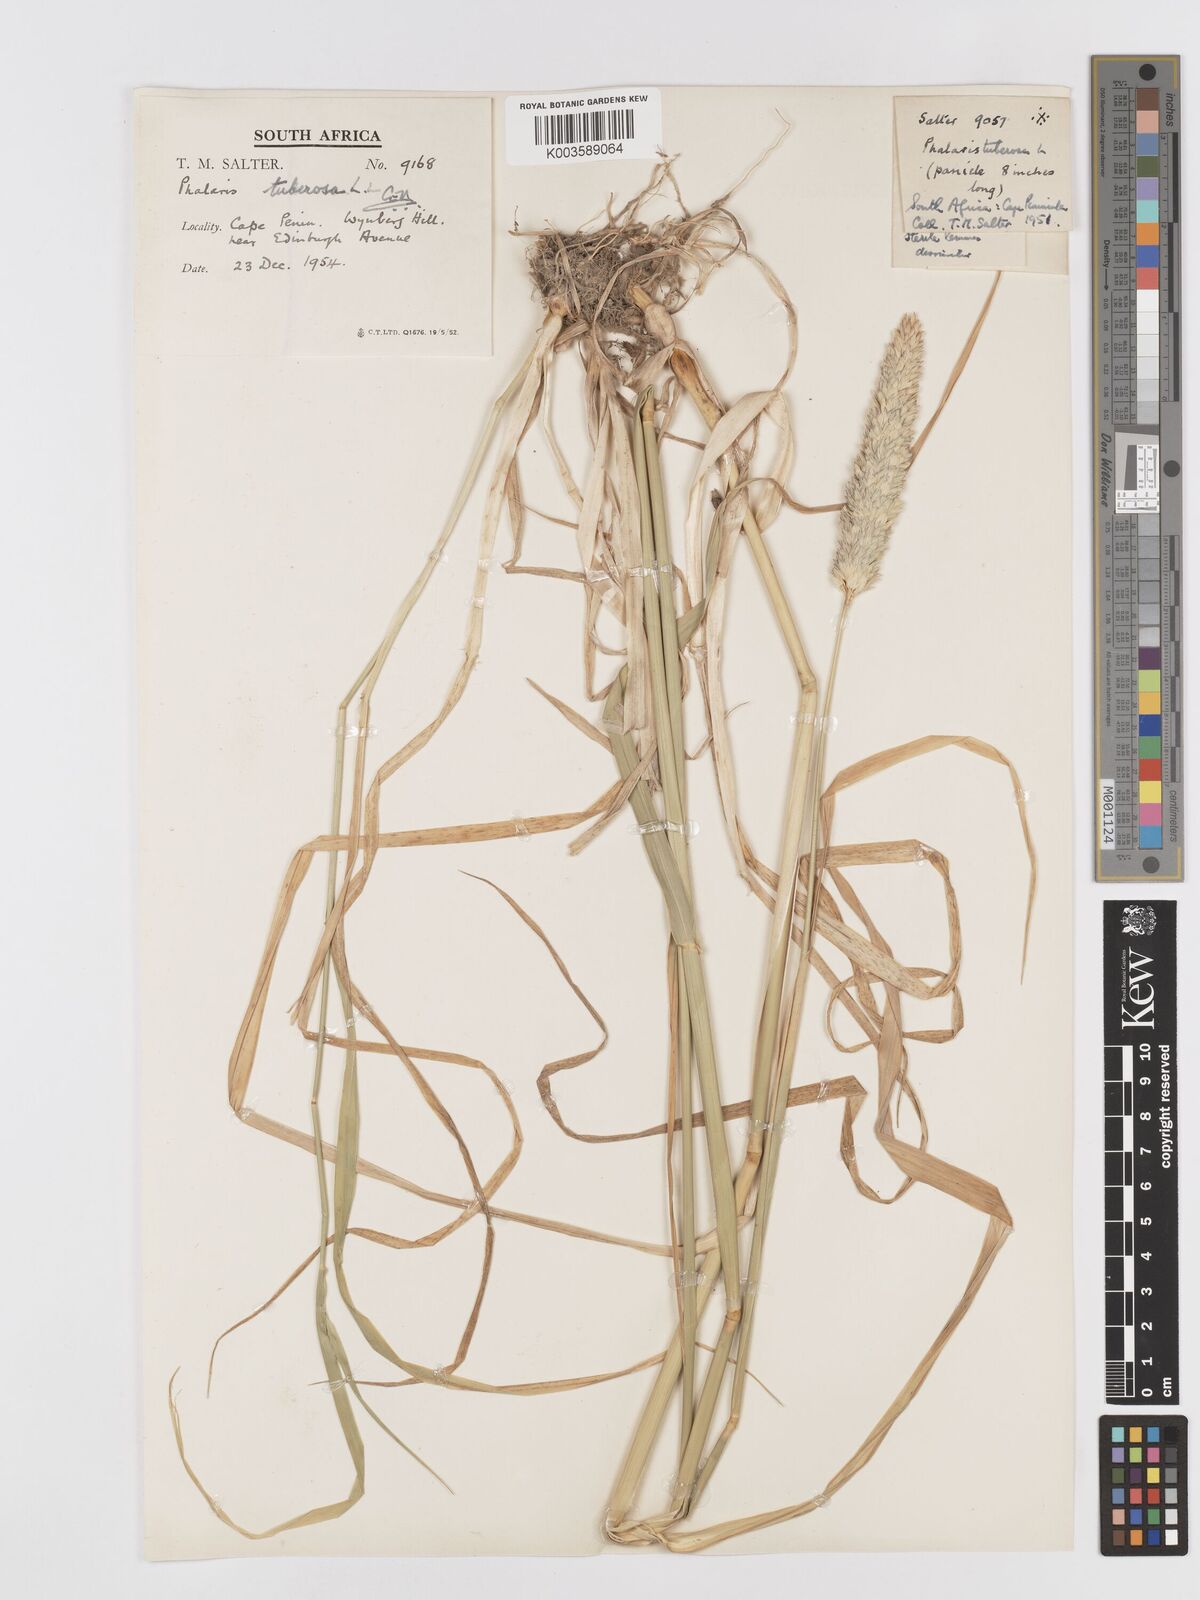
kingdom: Plantae
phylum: Tracheophyta
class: Liliopsida
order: Poales
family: Poaceae
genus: Phalaris
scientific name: Phalaris aquatica
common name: Bulbous canary-grass
